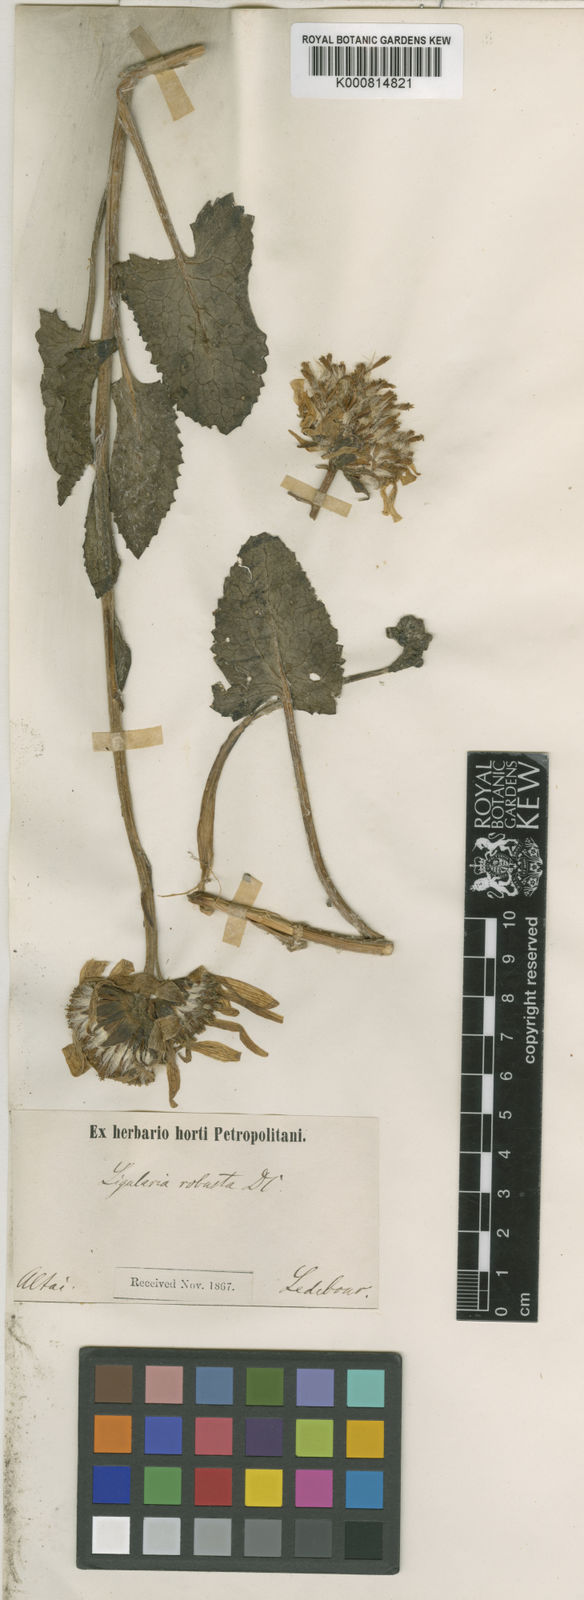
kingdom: Plantae
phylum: Tracheophyta
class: Magnoliopsida
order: Asterales
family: Asteraceae
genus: Vickifunkia
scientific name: Vickifunkia robusta
